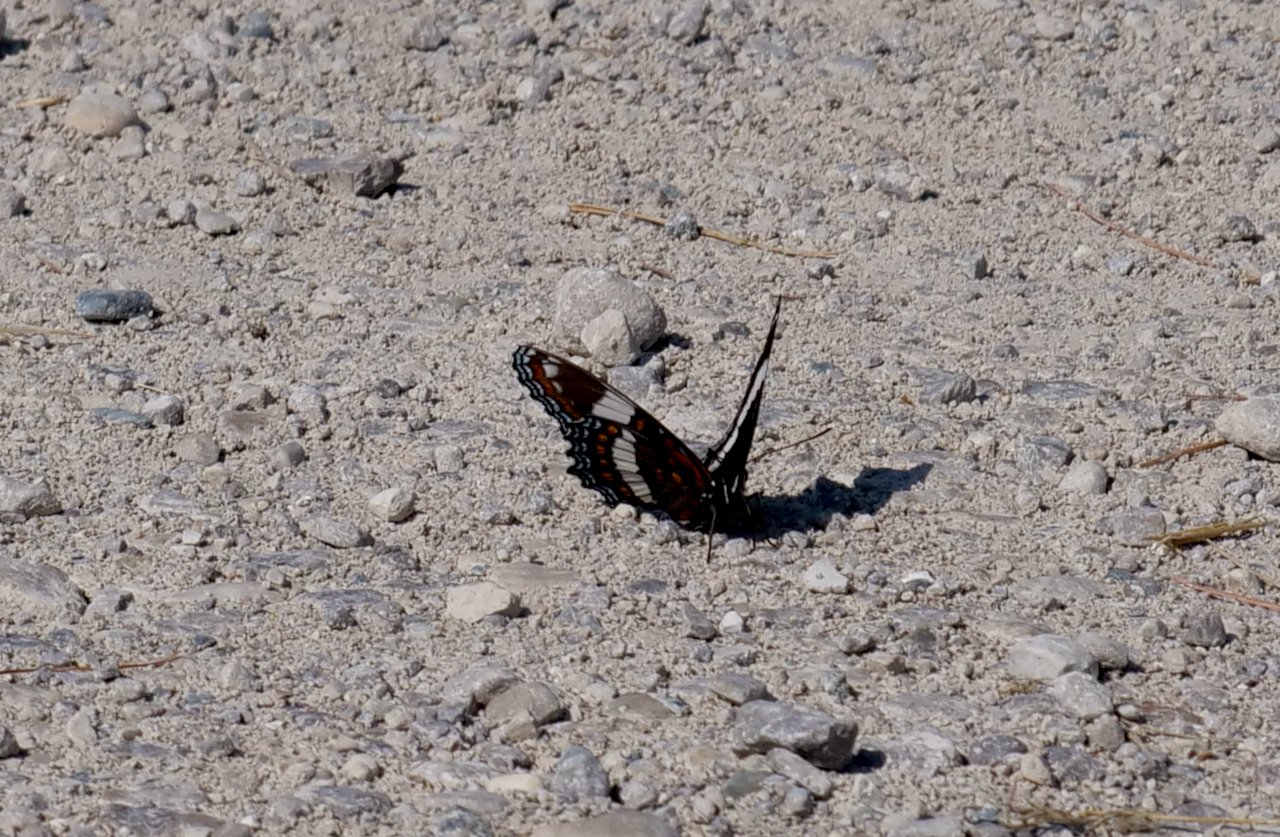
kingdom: Animalia
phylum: Arthropoda
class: Insecta
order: Lepidoptera
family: Nymphalidae
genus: Limenitis
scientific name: Limenitis arthemis
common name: Red-spotted Admiral
